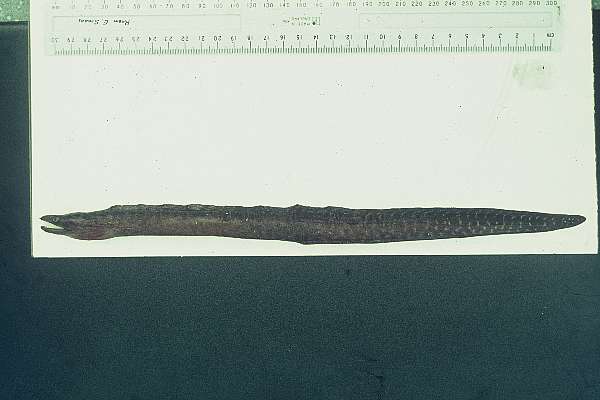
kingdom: Animalia
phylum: Chordata
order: Anguilliformes
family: Muraenidae
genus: Gymnothorax
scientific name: Gymnothorax margaritophorus
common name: Blotch-necked moray
